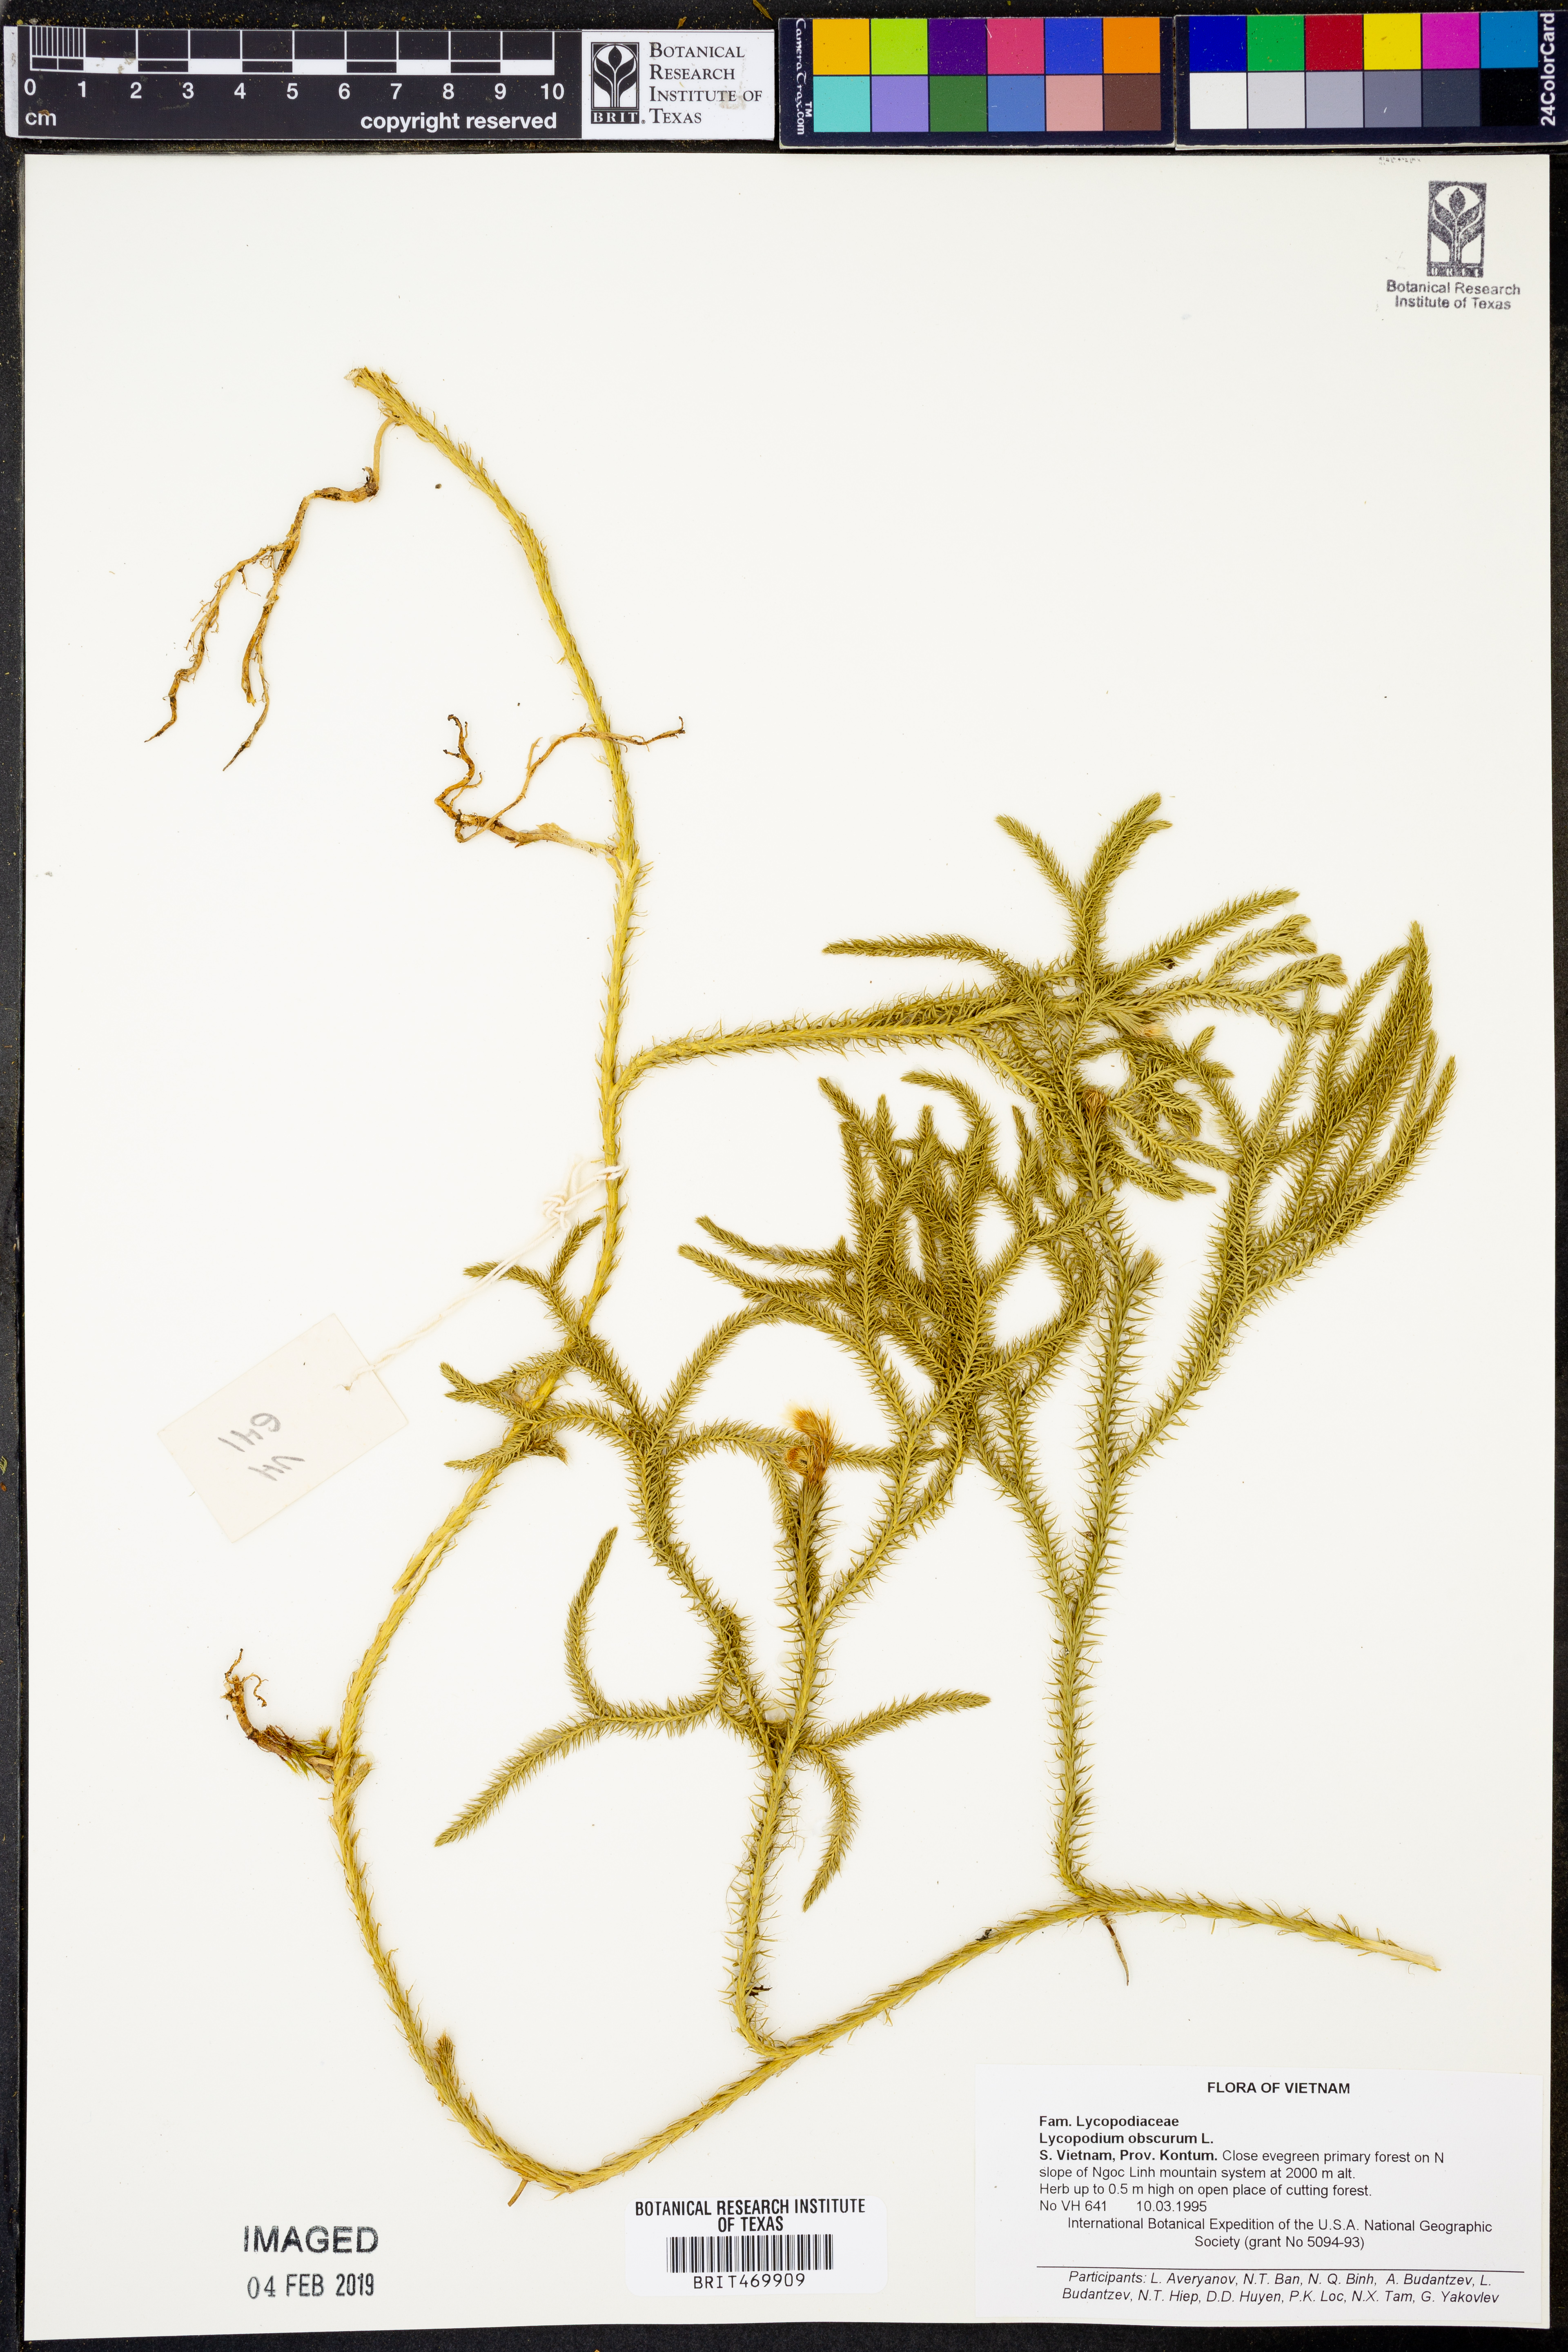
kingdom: Plantae
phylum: Tracheophyta
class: Lycopodiopsida
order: Lycopodiales
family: Lycopodiaceae
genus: Dendrolycopodium
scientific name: Dendrolycopodium obscurum
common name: Common ground-pine
